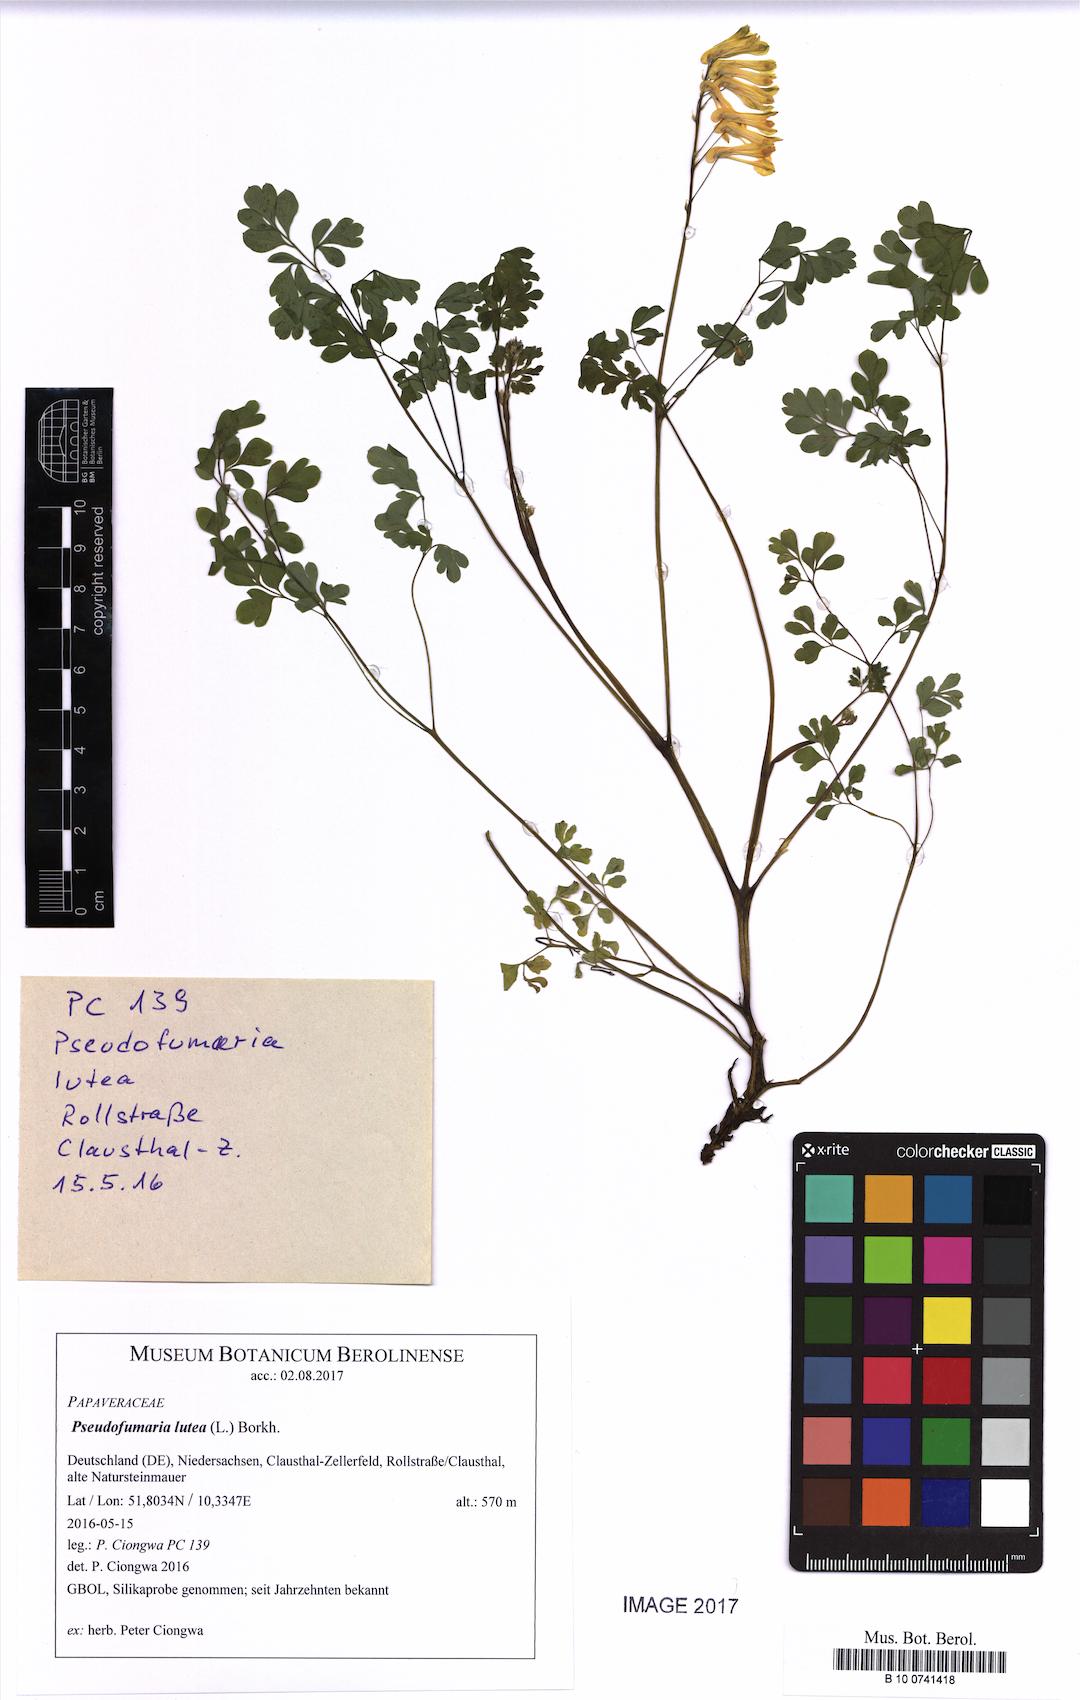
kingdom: Plantae
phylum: Tracheophyta
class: Magnoliopsida
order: Ranunculales
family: Papaveraceae
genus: Pseudofumaria
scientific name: Pseudofumaria lutea
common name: Yellow corydalis
